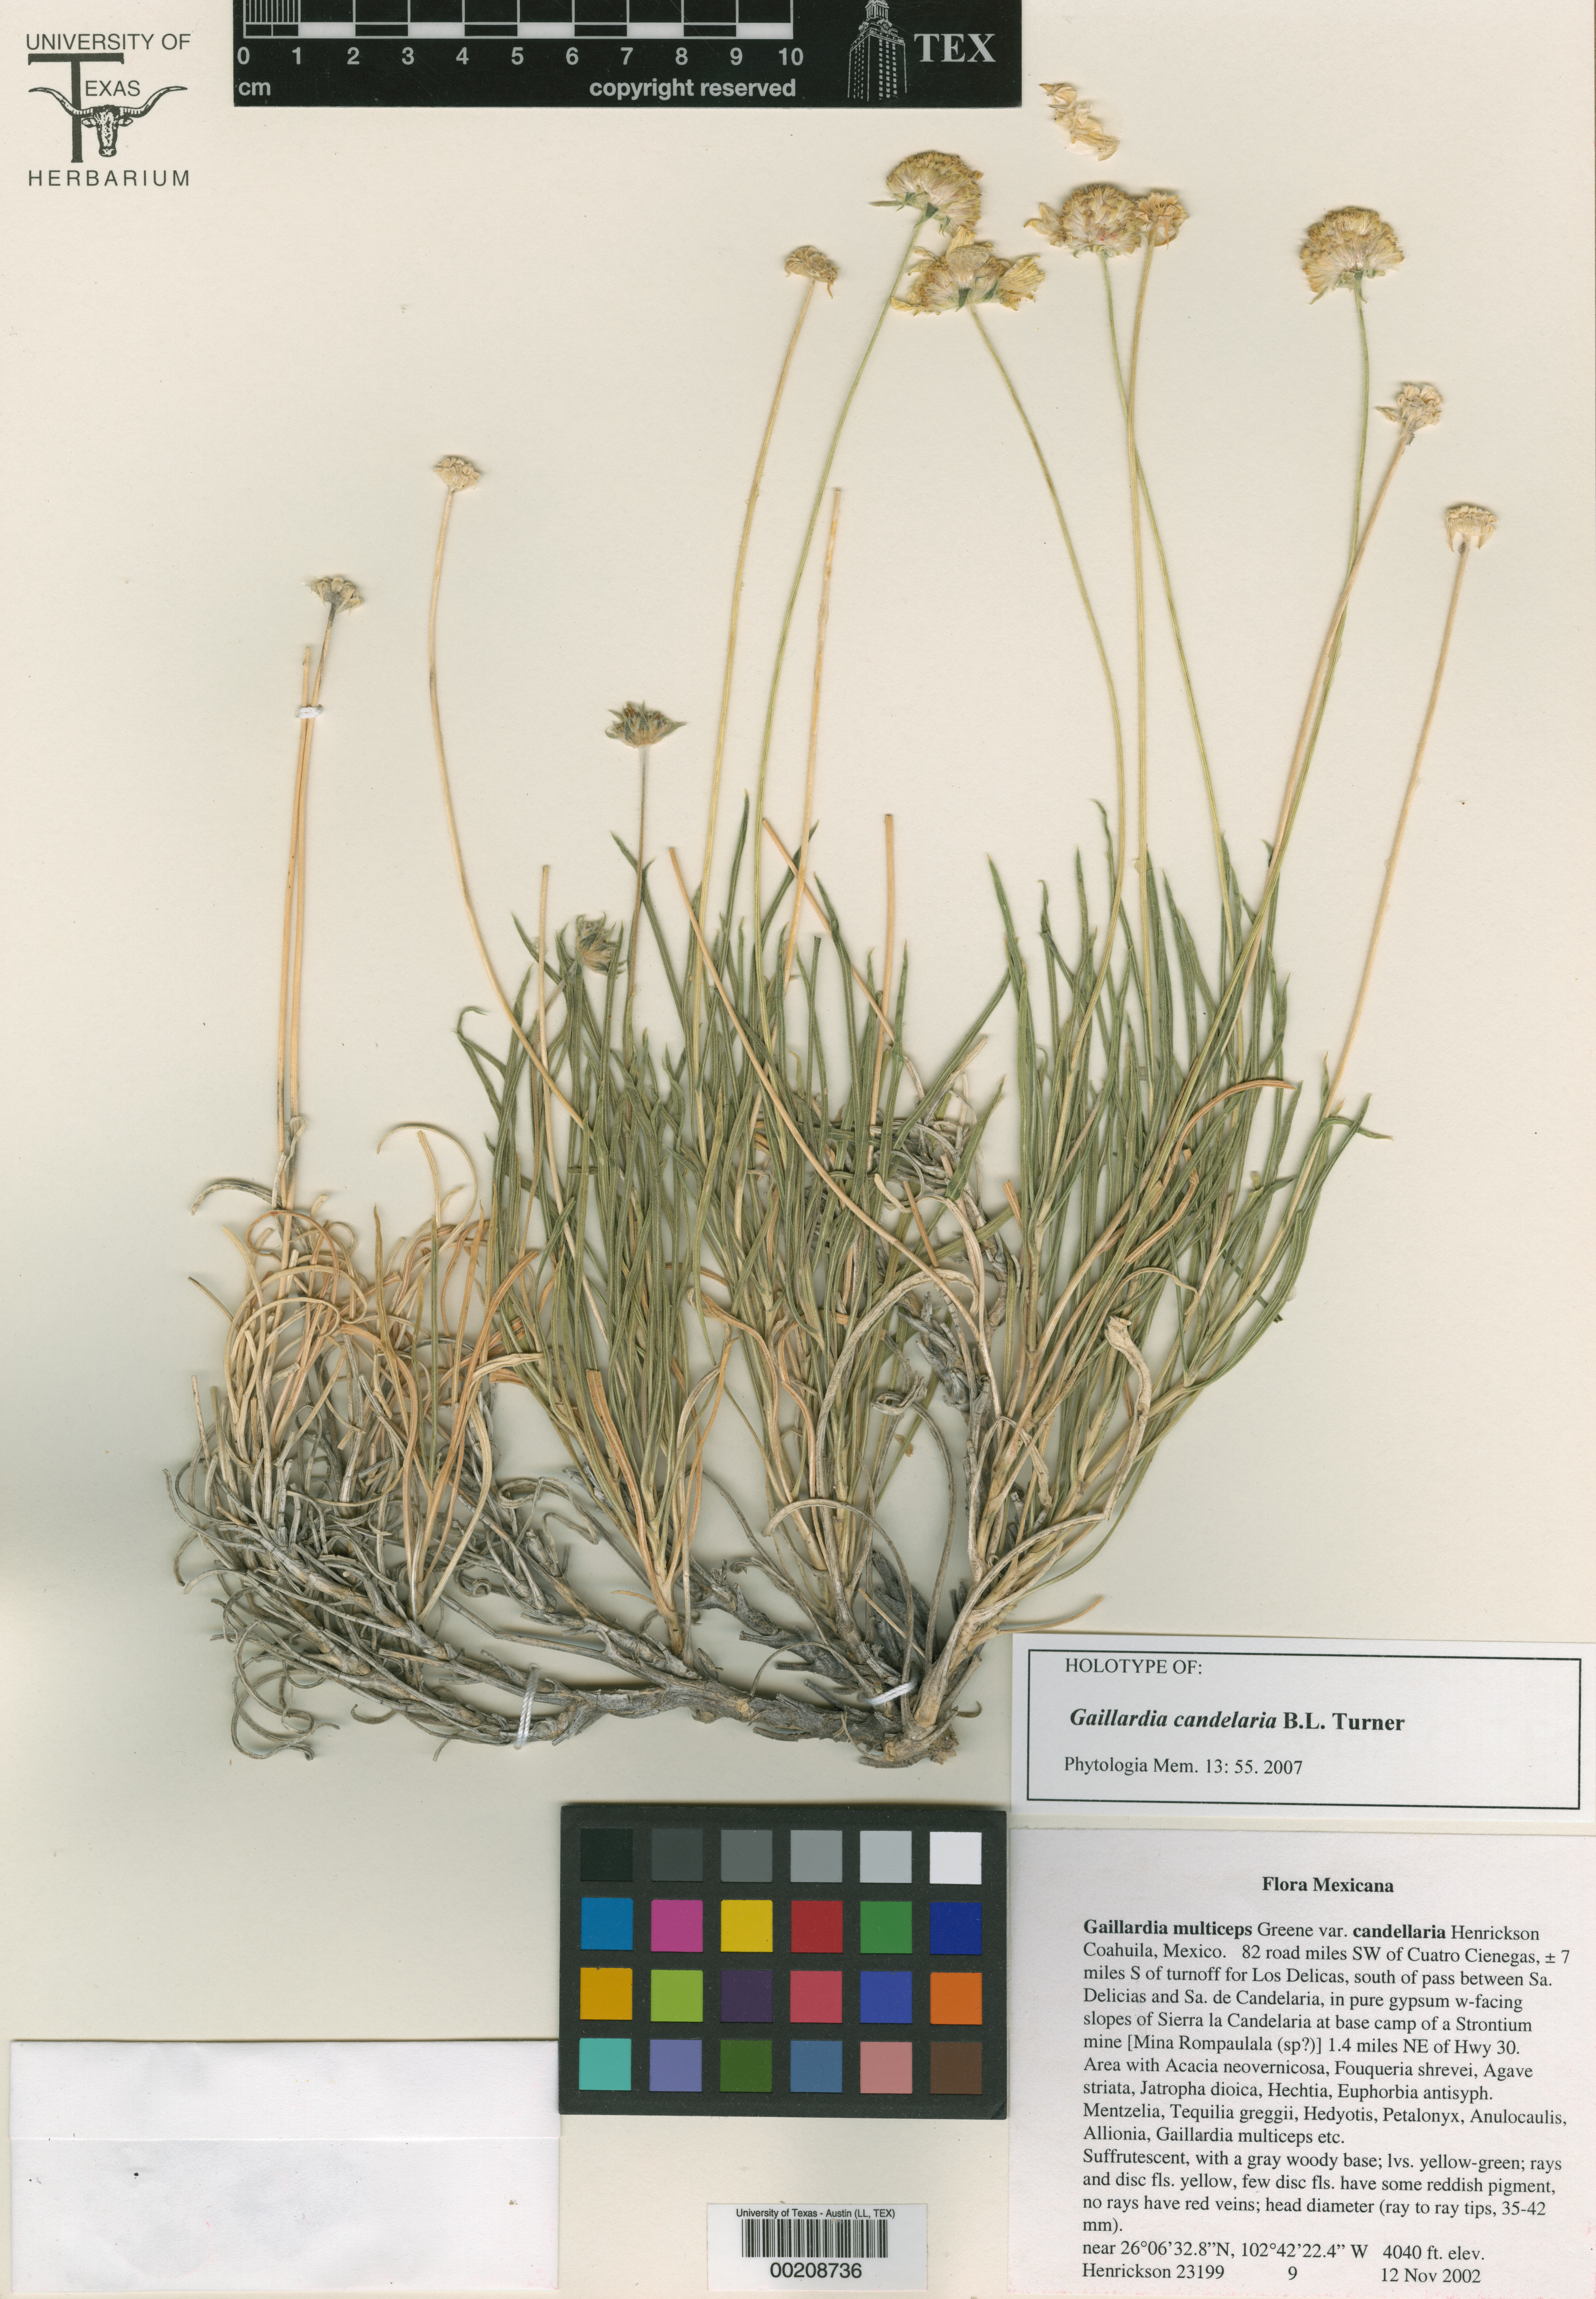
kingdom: Plantae
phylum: Tracheophyta
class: Magnoliopsida
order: Malpighiales
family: Hypericaceae
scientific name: Hypericaceae
